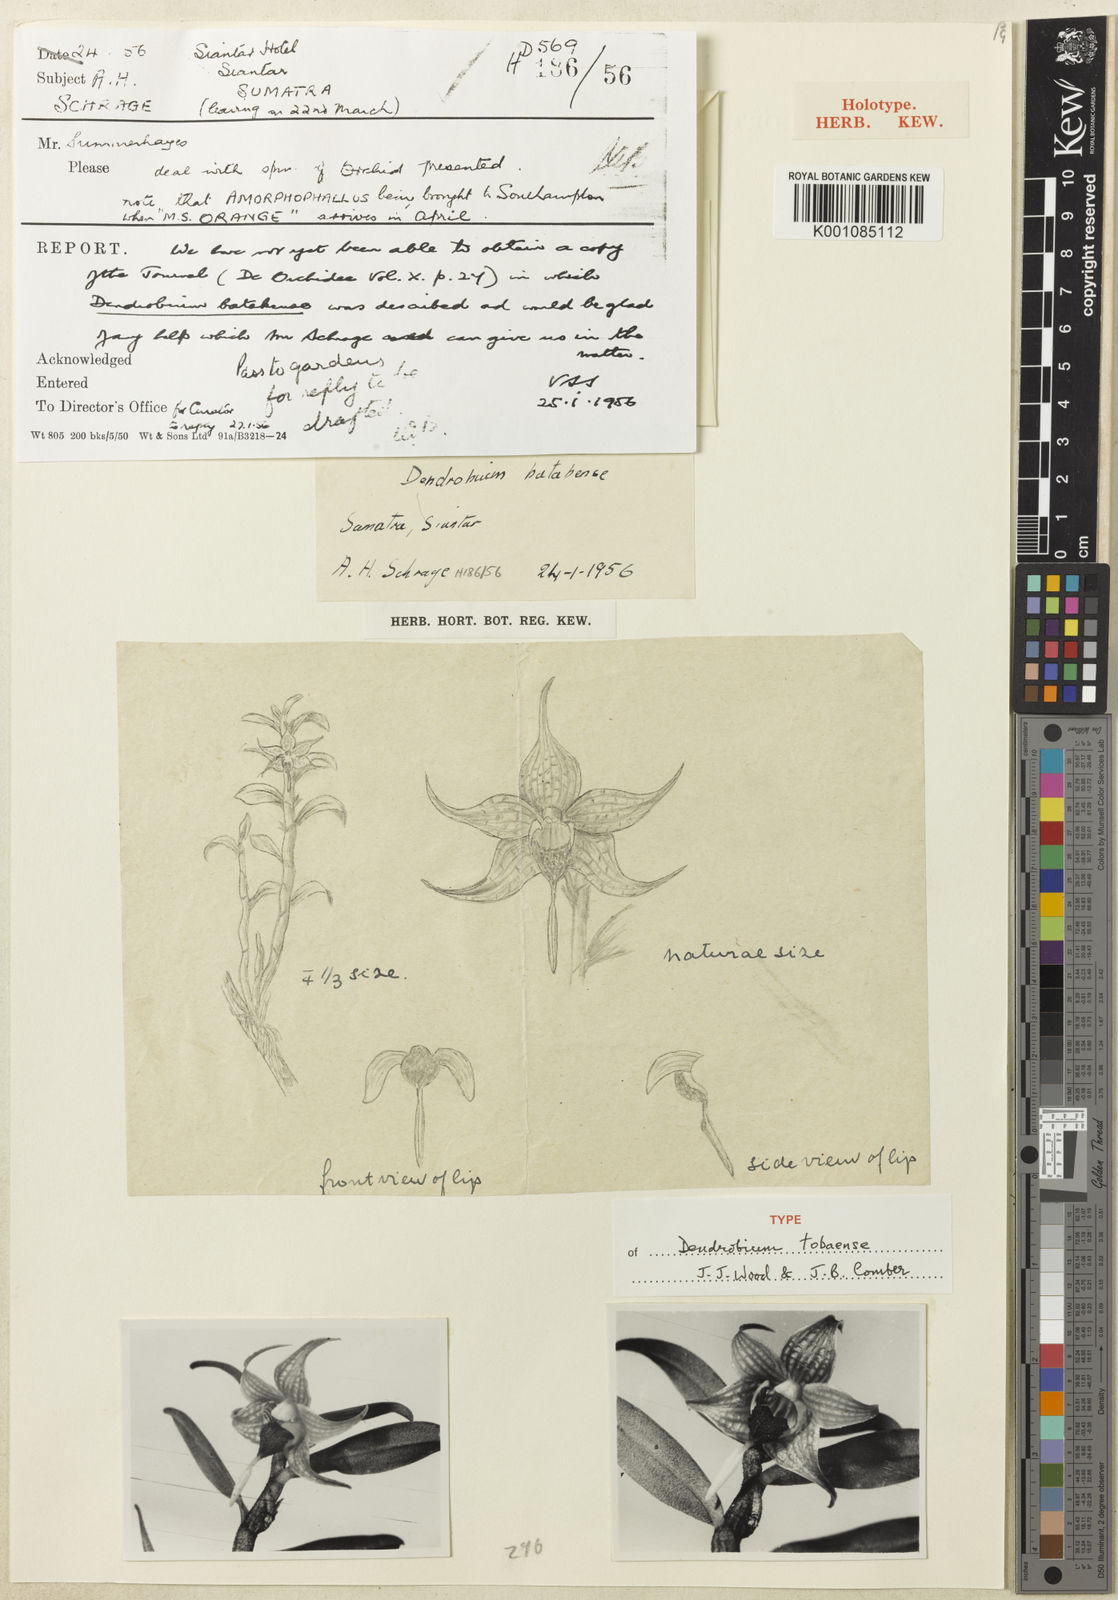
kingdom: Plantae
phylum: Tracheophyta
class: Liliopsida
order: Asparagales
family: Orchidaceae
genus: Dendrobium
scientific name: Dendrobium tobaense
